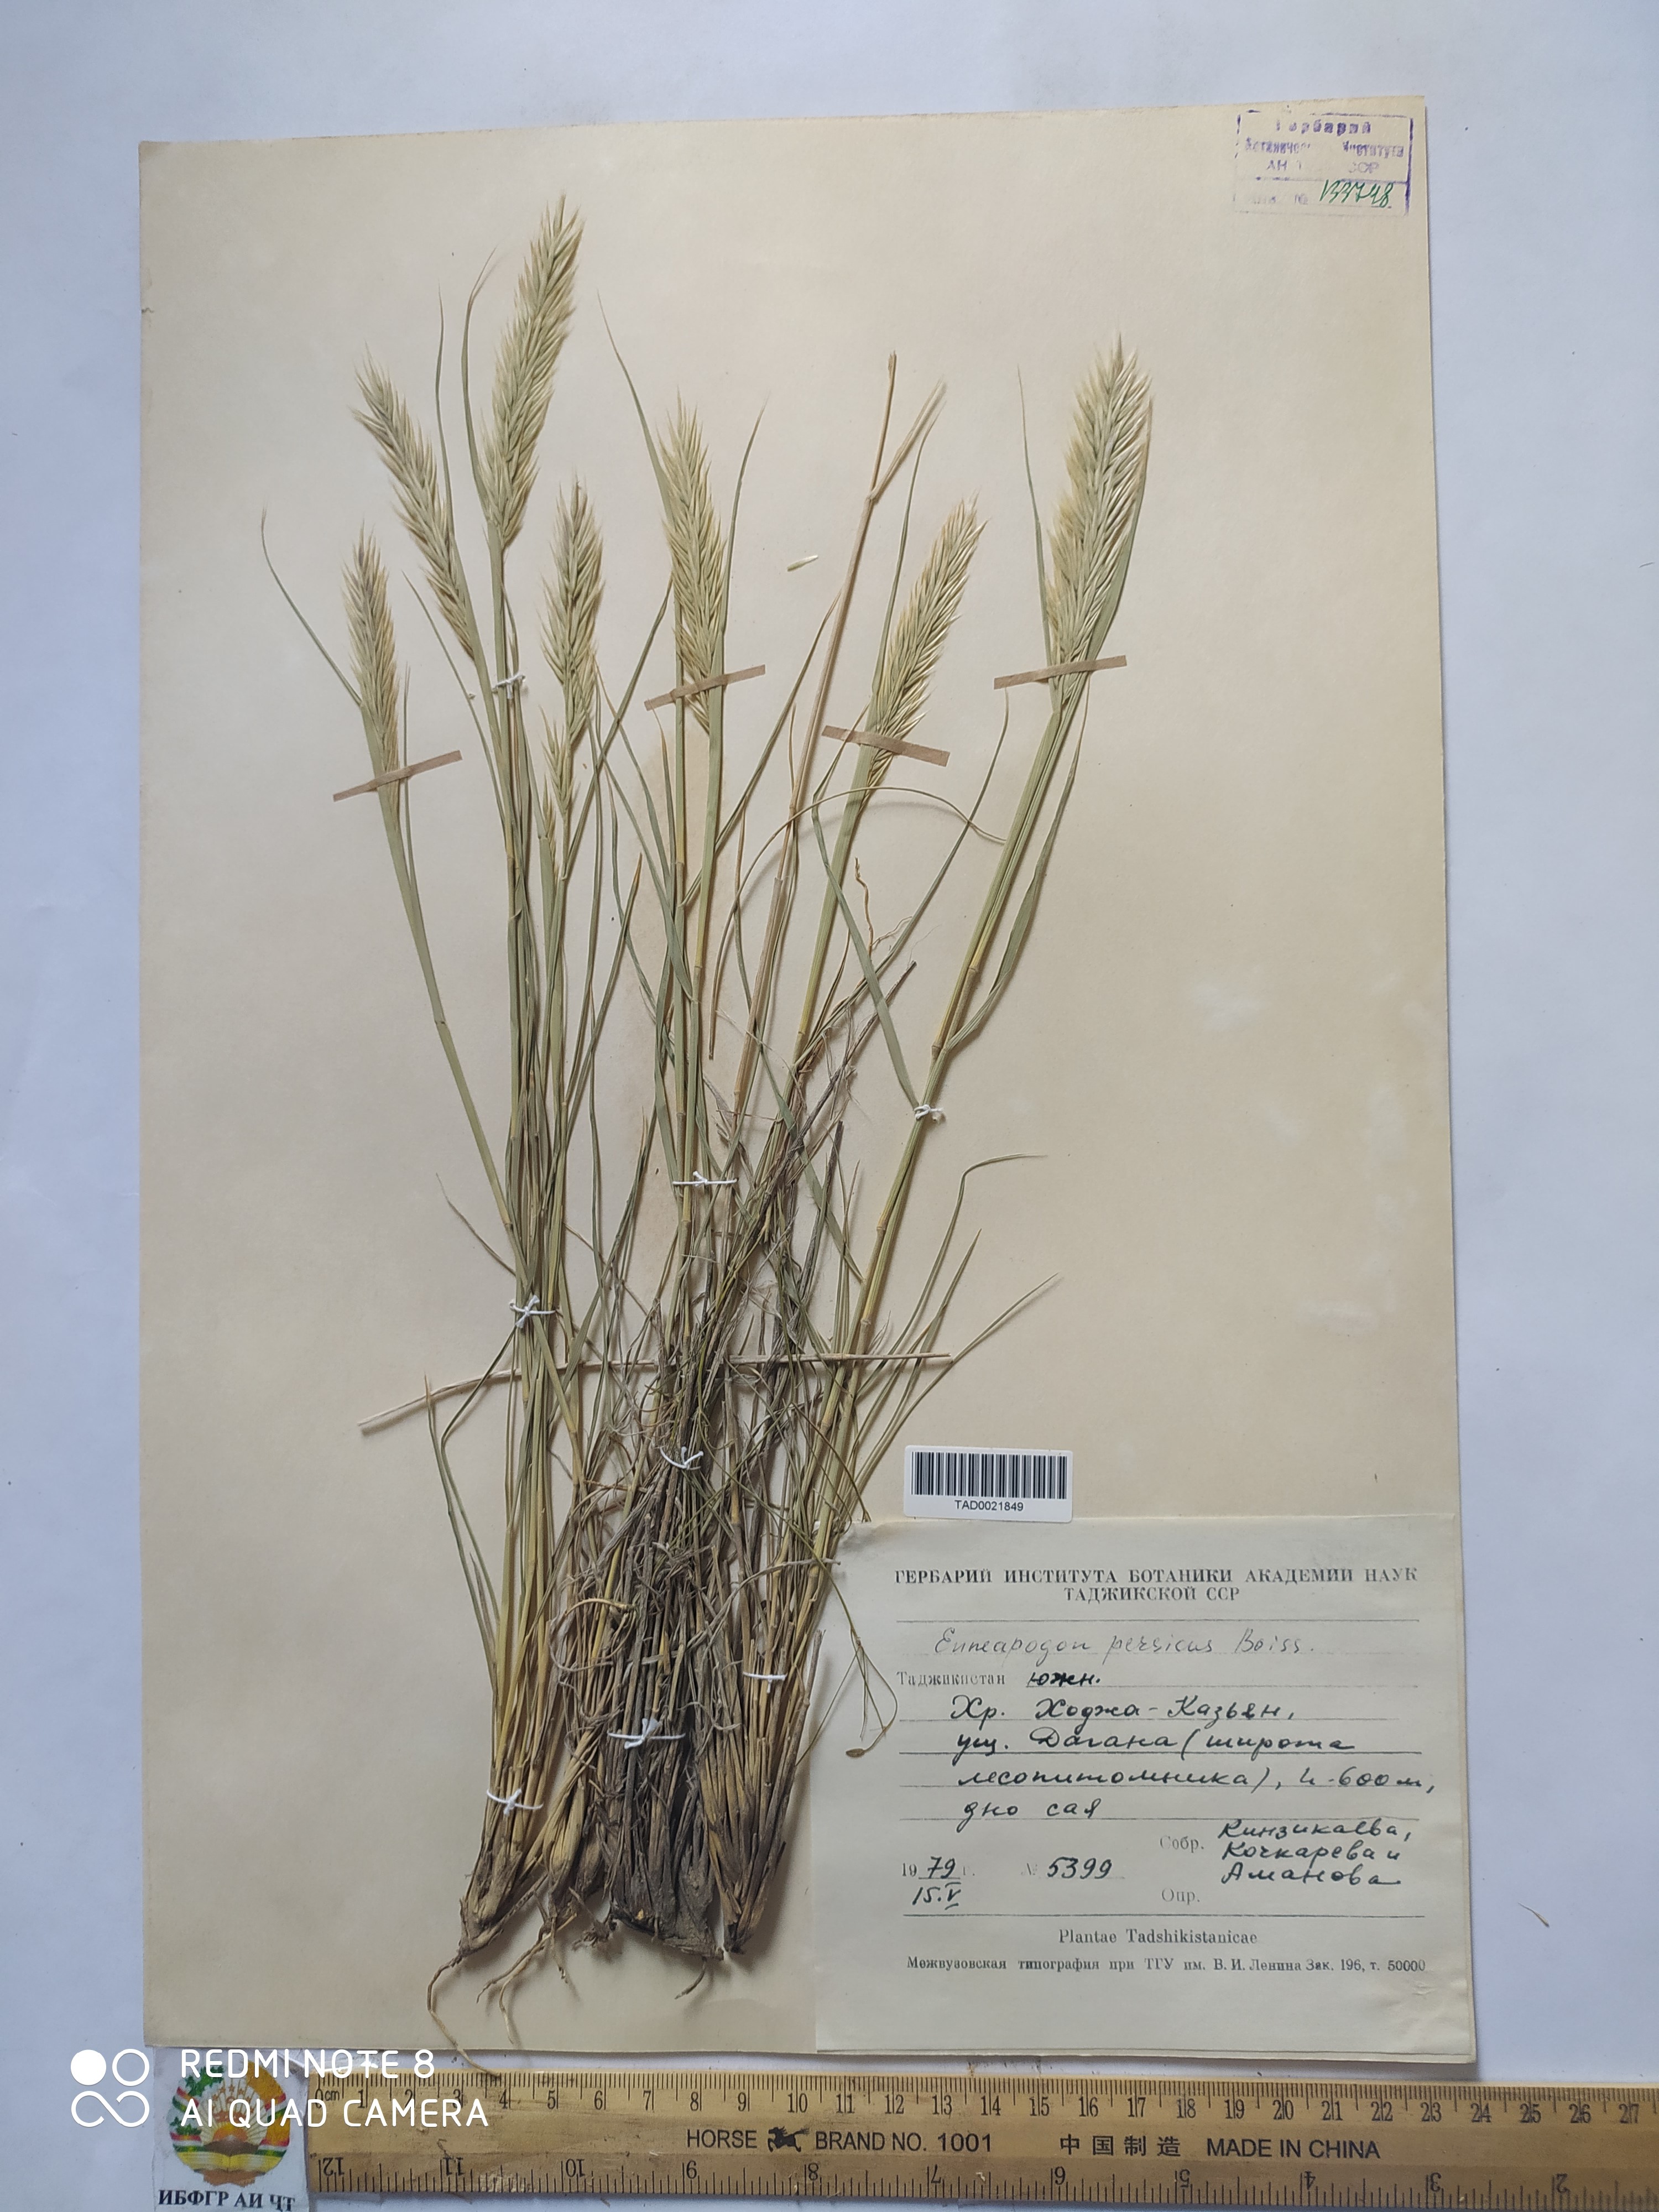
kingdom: Plantae
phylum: Tracheophyta
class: Liliopsida
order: Poales
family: Poaceae
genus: Enneapogon
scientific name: Enneapogon persicus
